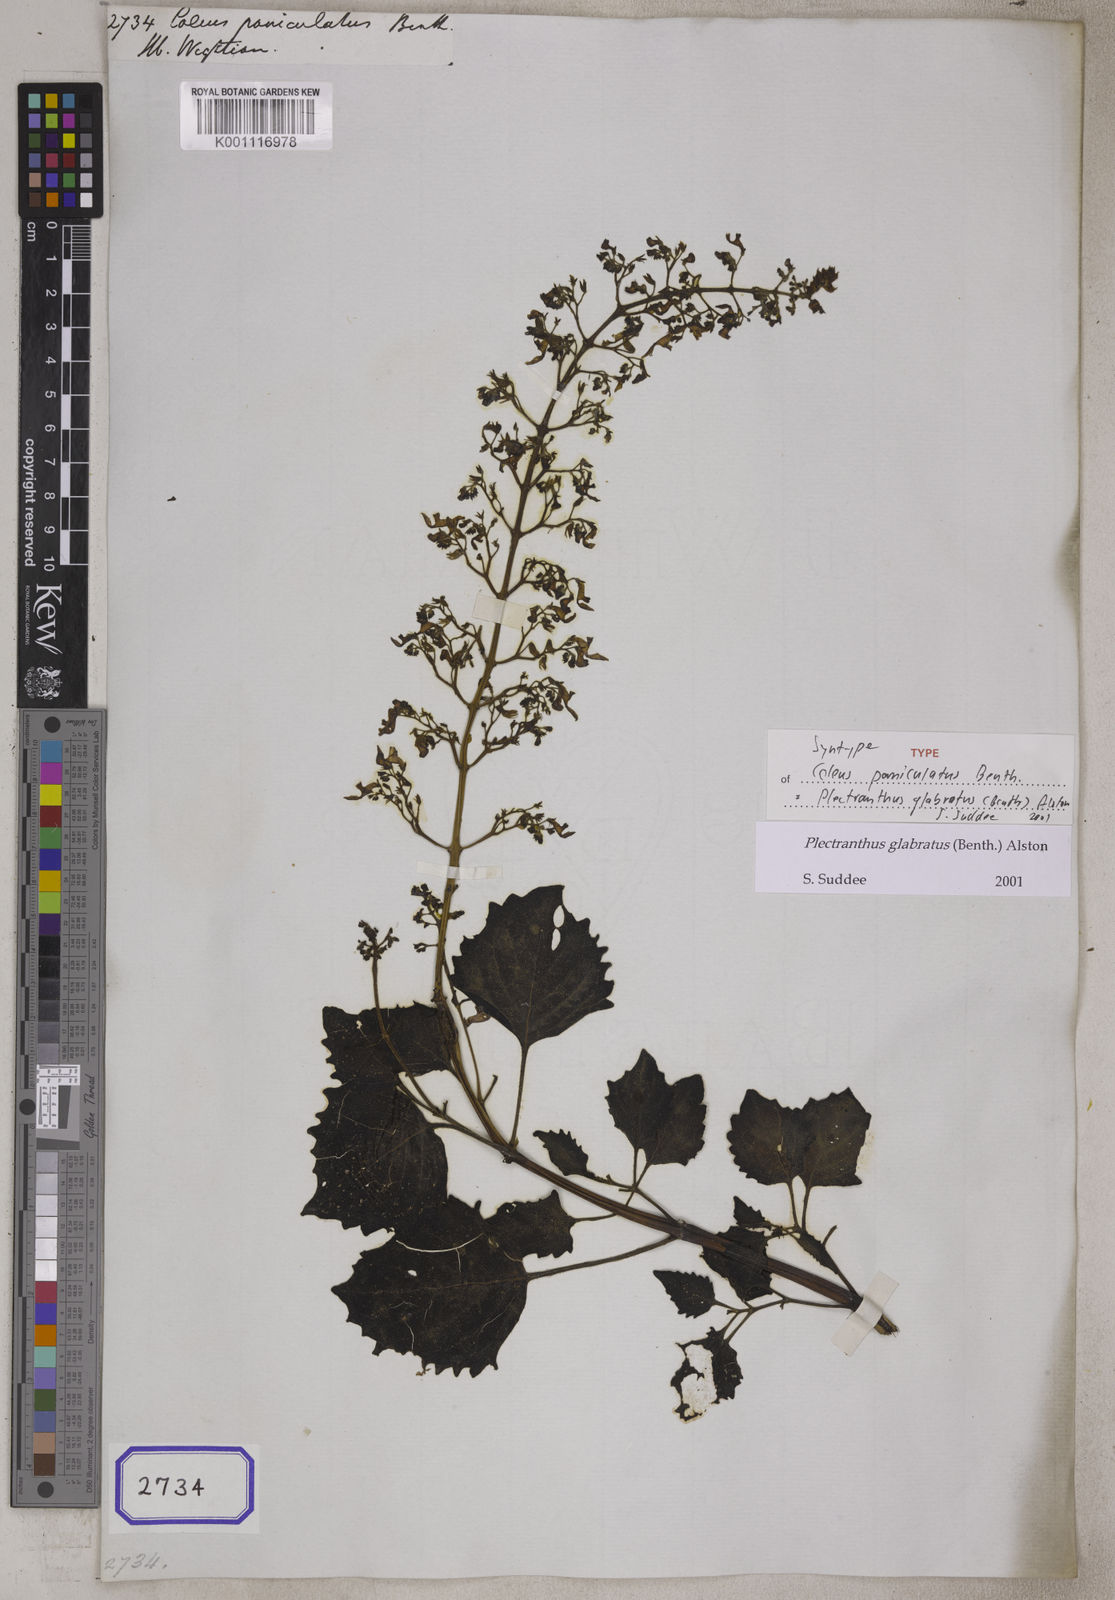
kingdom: Plantae
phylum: Tracheophyta
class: Magnoliopsida
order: Lamiales
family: Lamiaceae
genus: Coleus
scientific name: Coleus paniculatus
